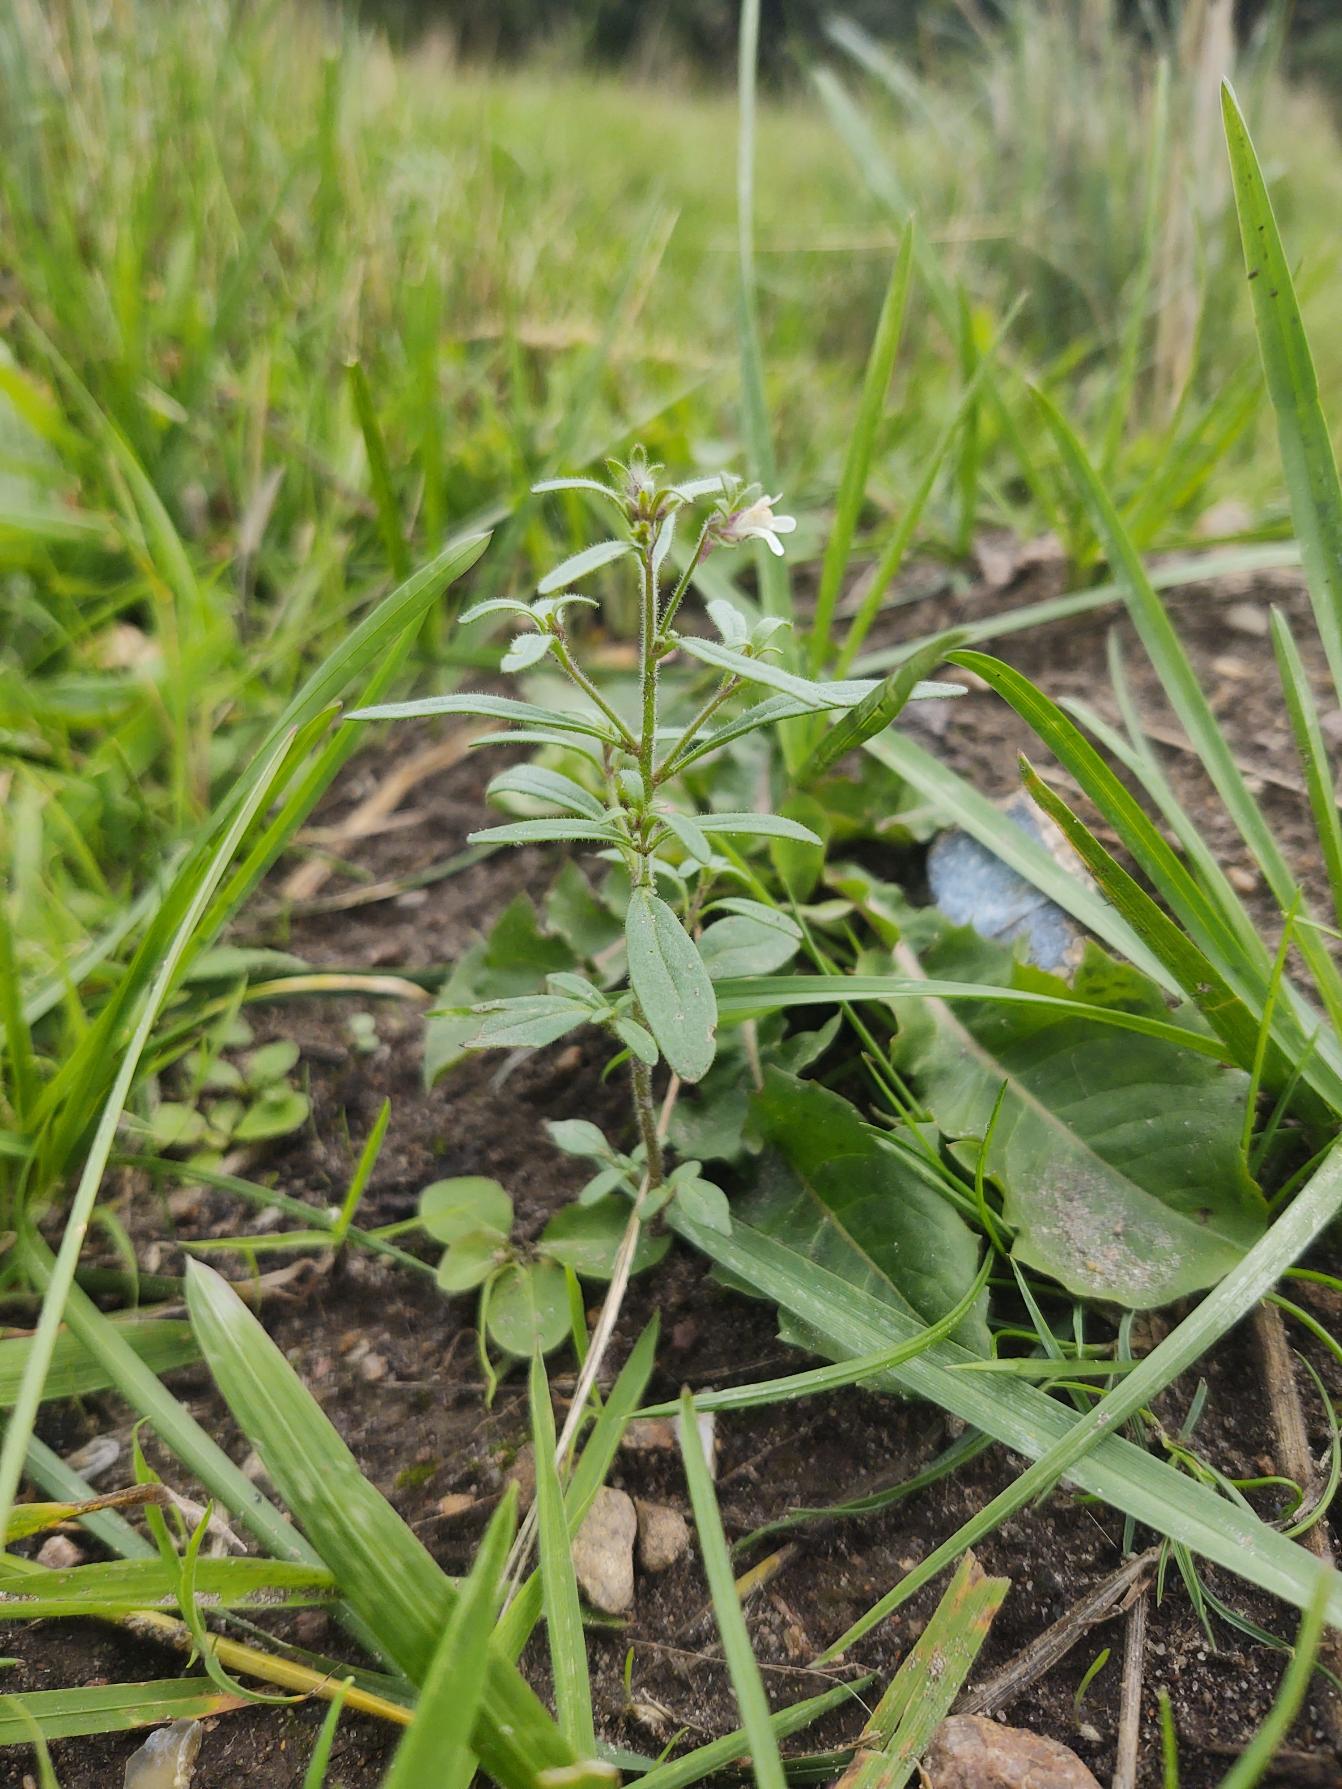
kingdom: Plantae
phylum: Tracheophyta
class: Magnoliopsida
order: Lamiales
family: Plantaginaceae
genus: Chaenorhinum
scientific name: Chaenorhinum minus
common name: Liden torskemund
